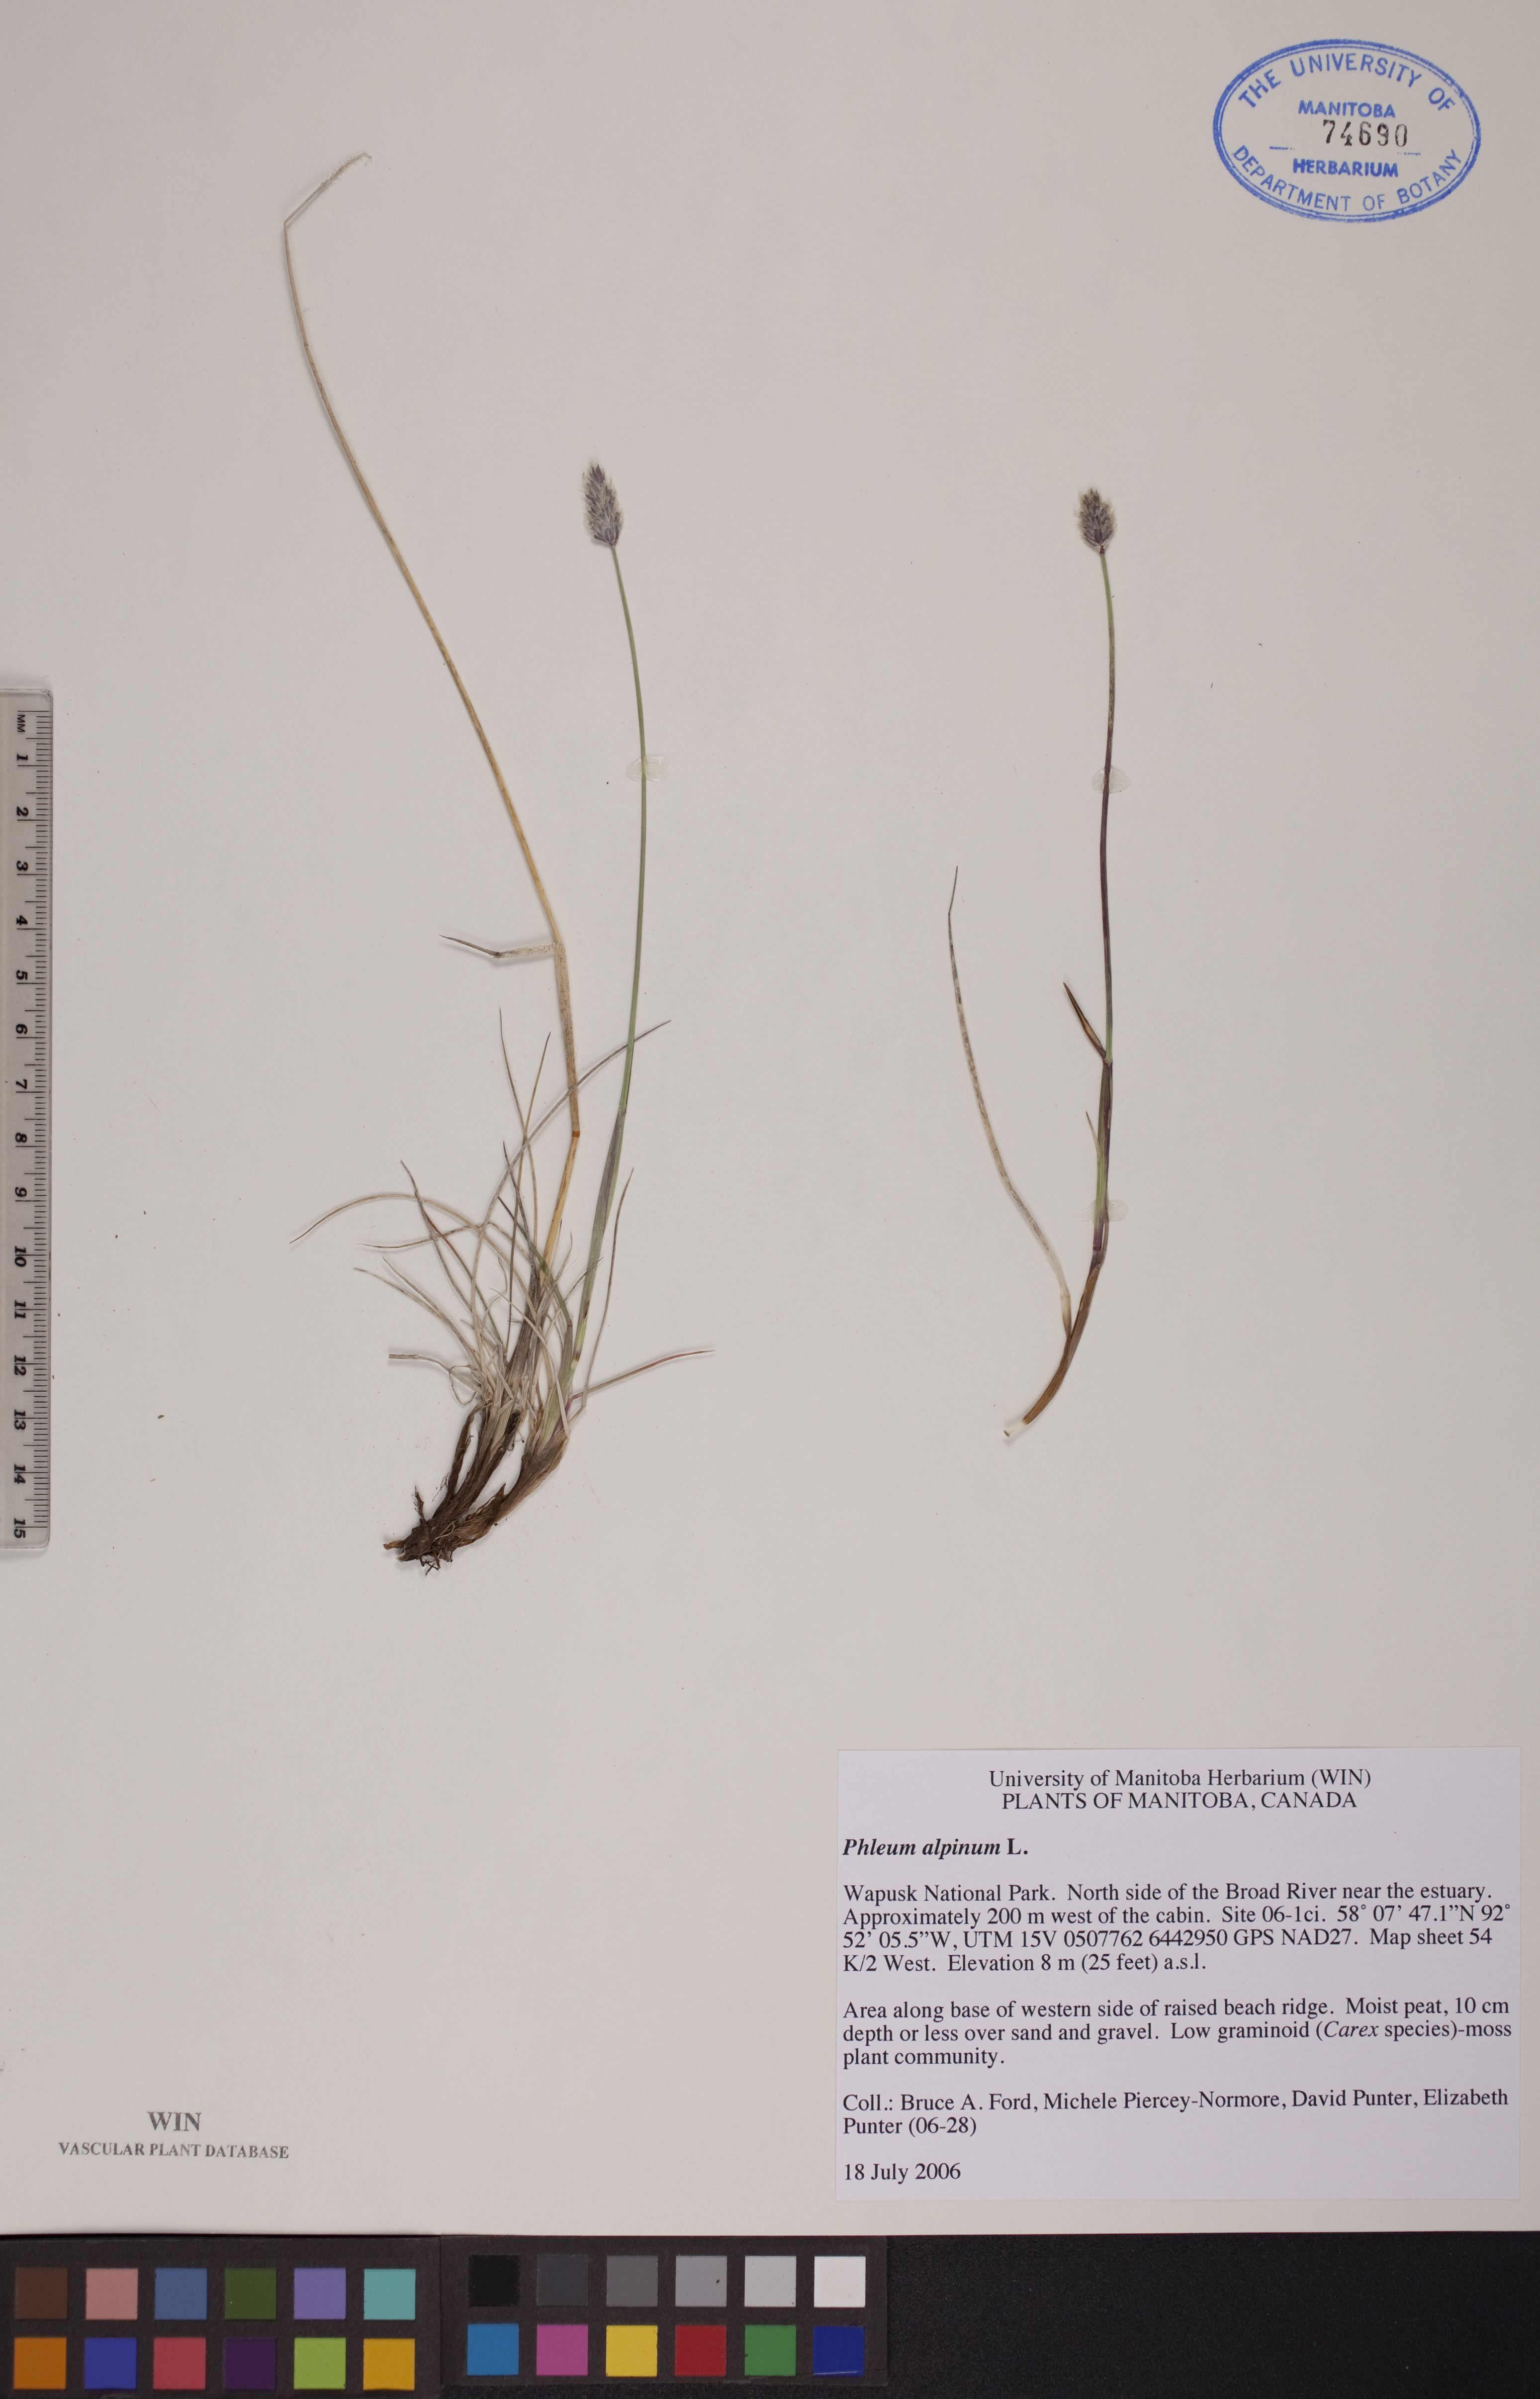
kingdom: Plantae
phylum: Tracheophyta
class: Liliopsida
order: Poales
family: Poaceae
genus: Phleum
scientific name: Phleum alpinum
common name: Alpine cat's-tail
